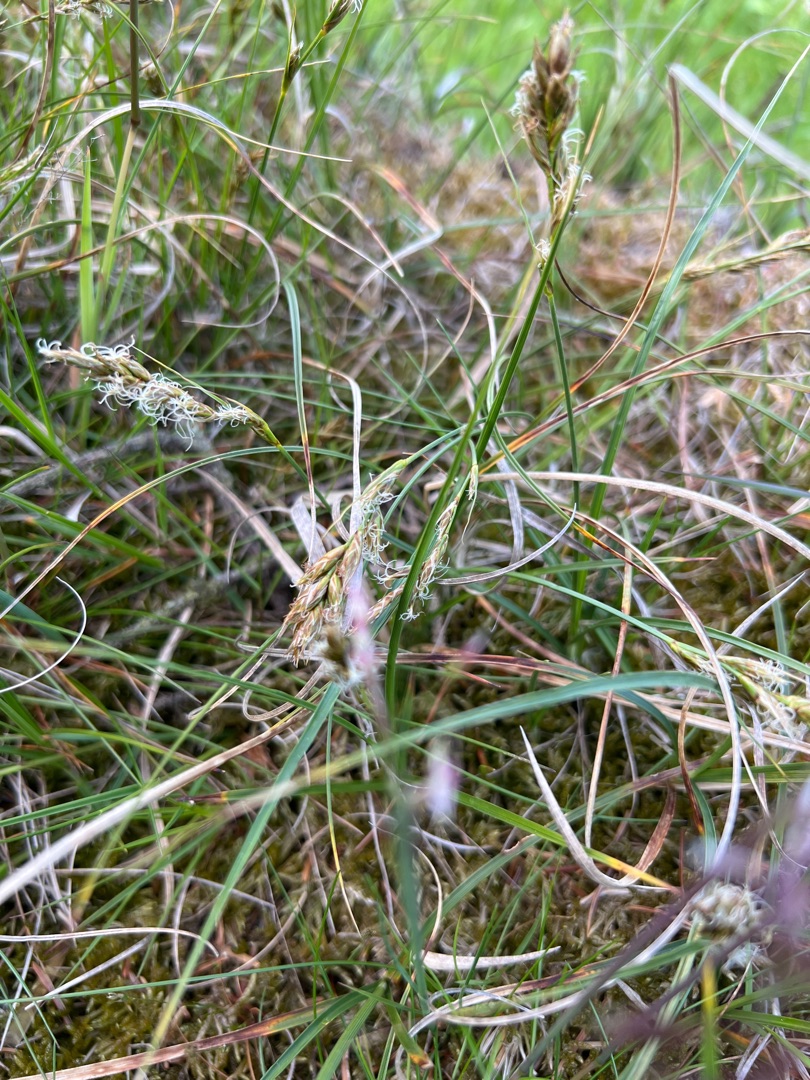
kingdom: Plantae
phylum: Tracheophyta
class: Liliopsida
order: Poales
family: Cyperaceae
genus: Carex
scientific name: Carex arenaria
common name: Sand-star
